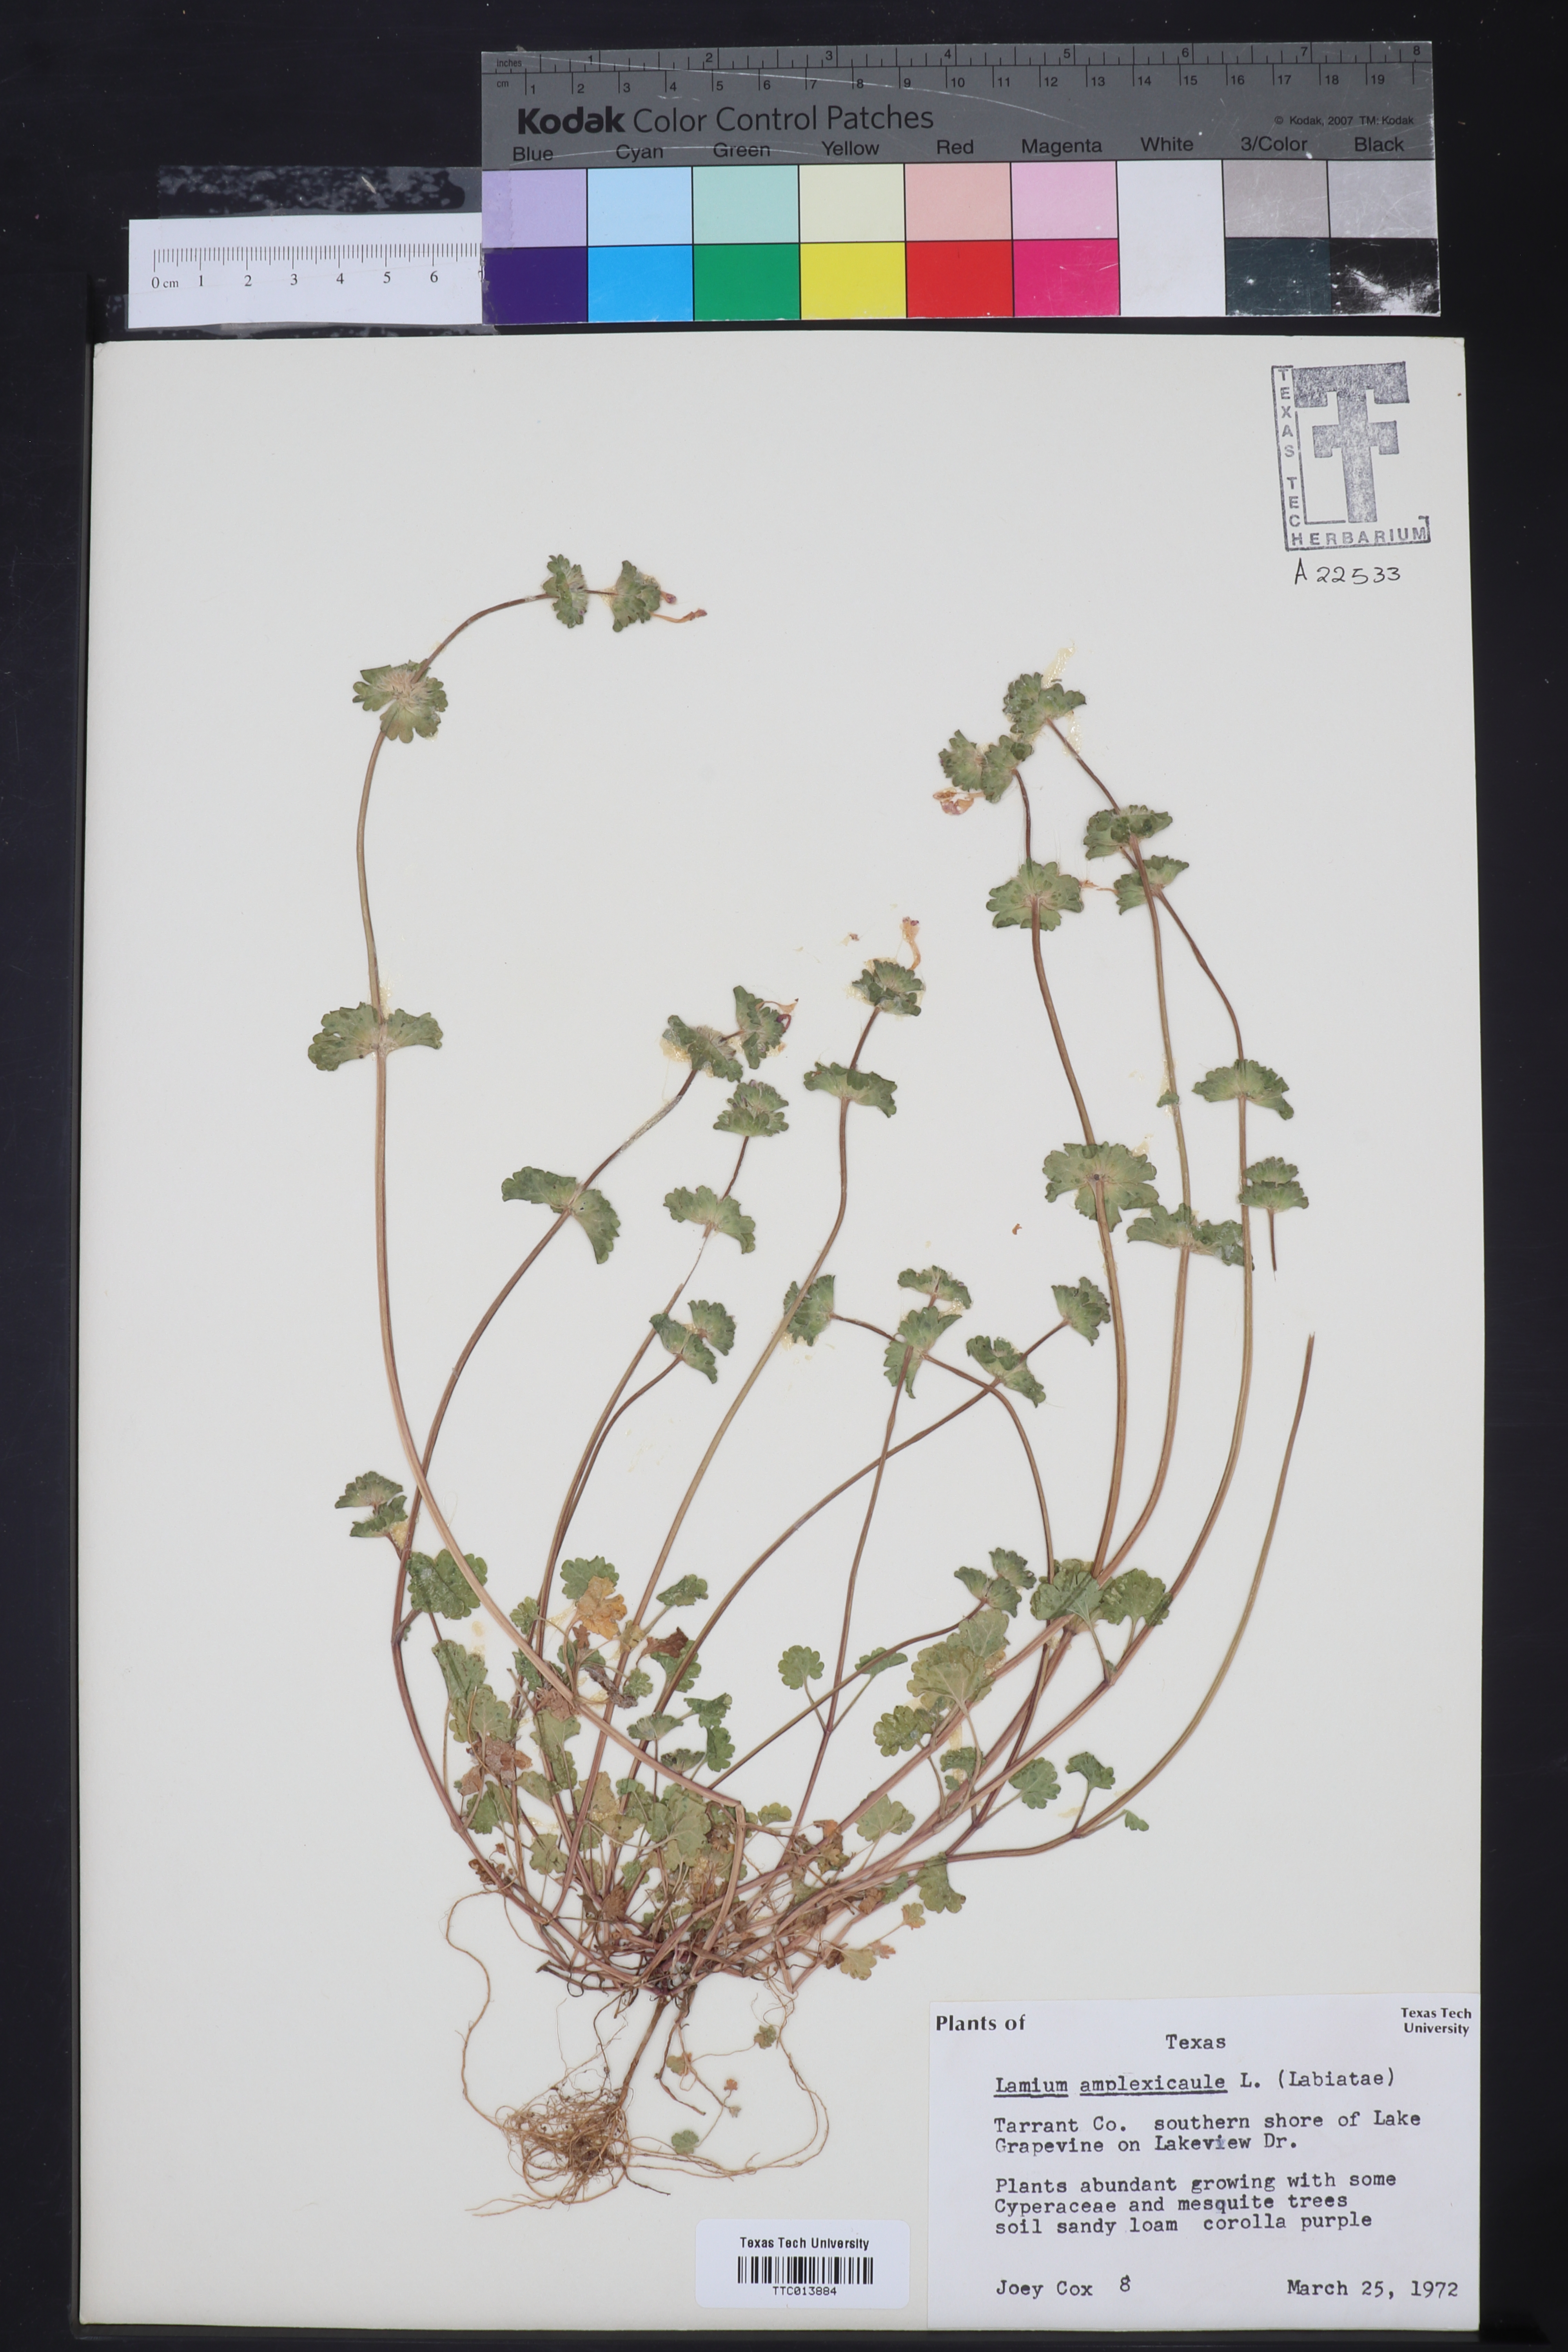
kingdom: Plantae
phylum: Tracheophyta
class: Magnoliopsida
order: Lamiales
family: Lamiaceae
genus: Lamium
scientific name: Lamium amplexicaule
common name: Henbit dead-nettle
